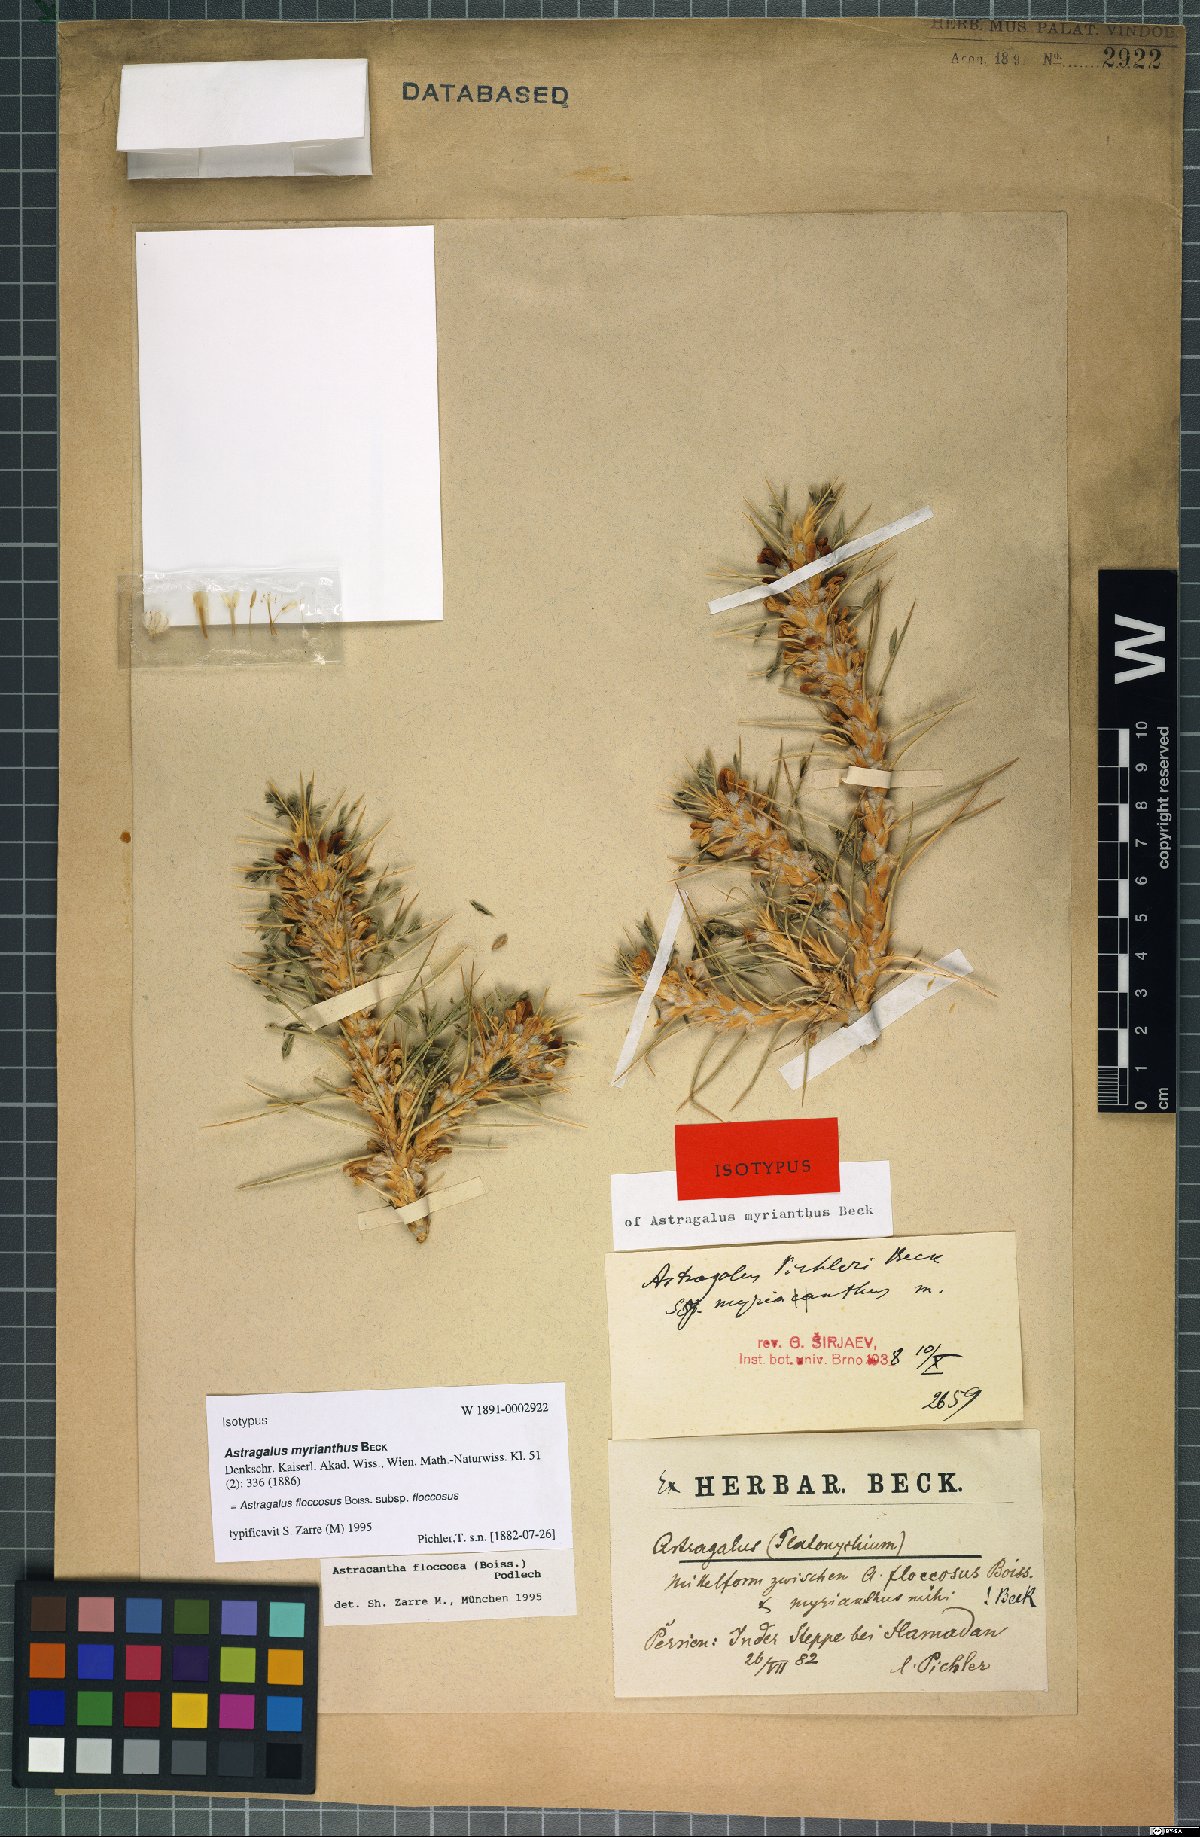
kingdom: Plantae
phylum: Tracheophyta
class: Magnoliopsida
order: Fabales
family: Fabaceae
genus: Astragalus
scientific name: Astragalus floccosus
